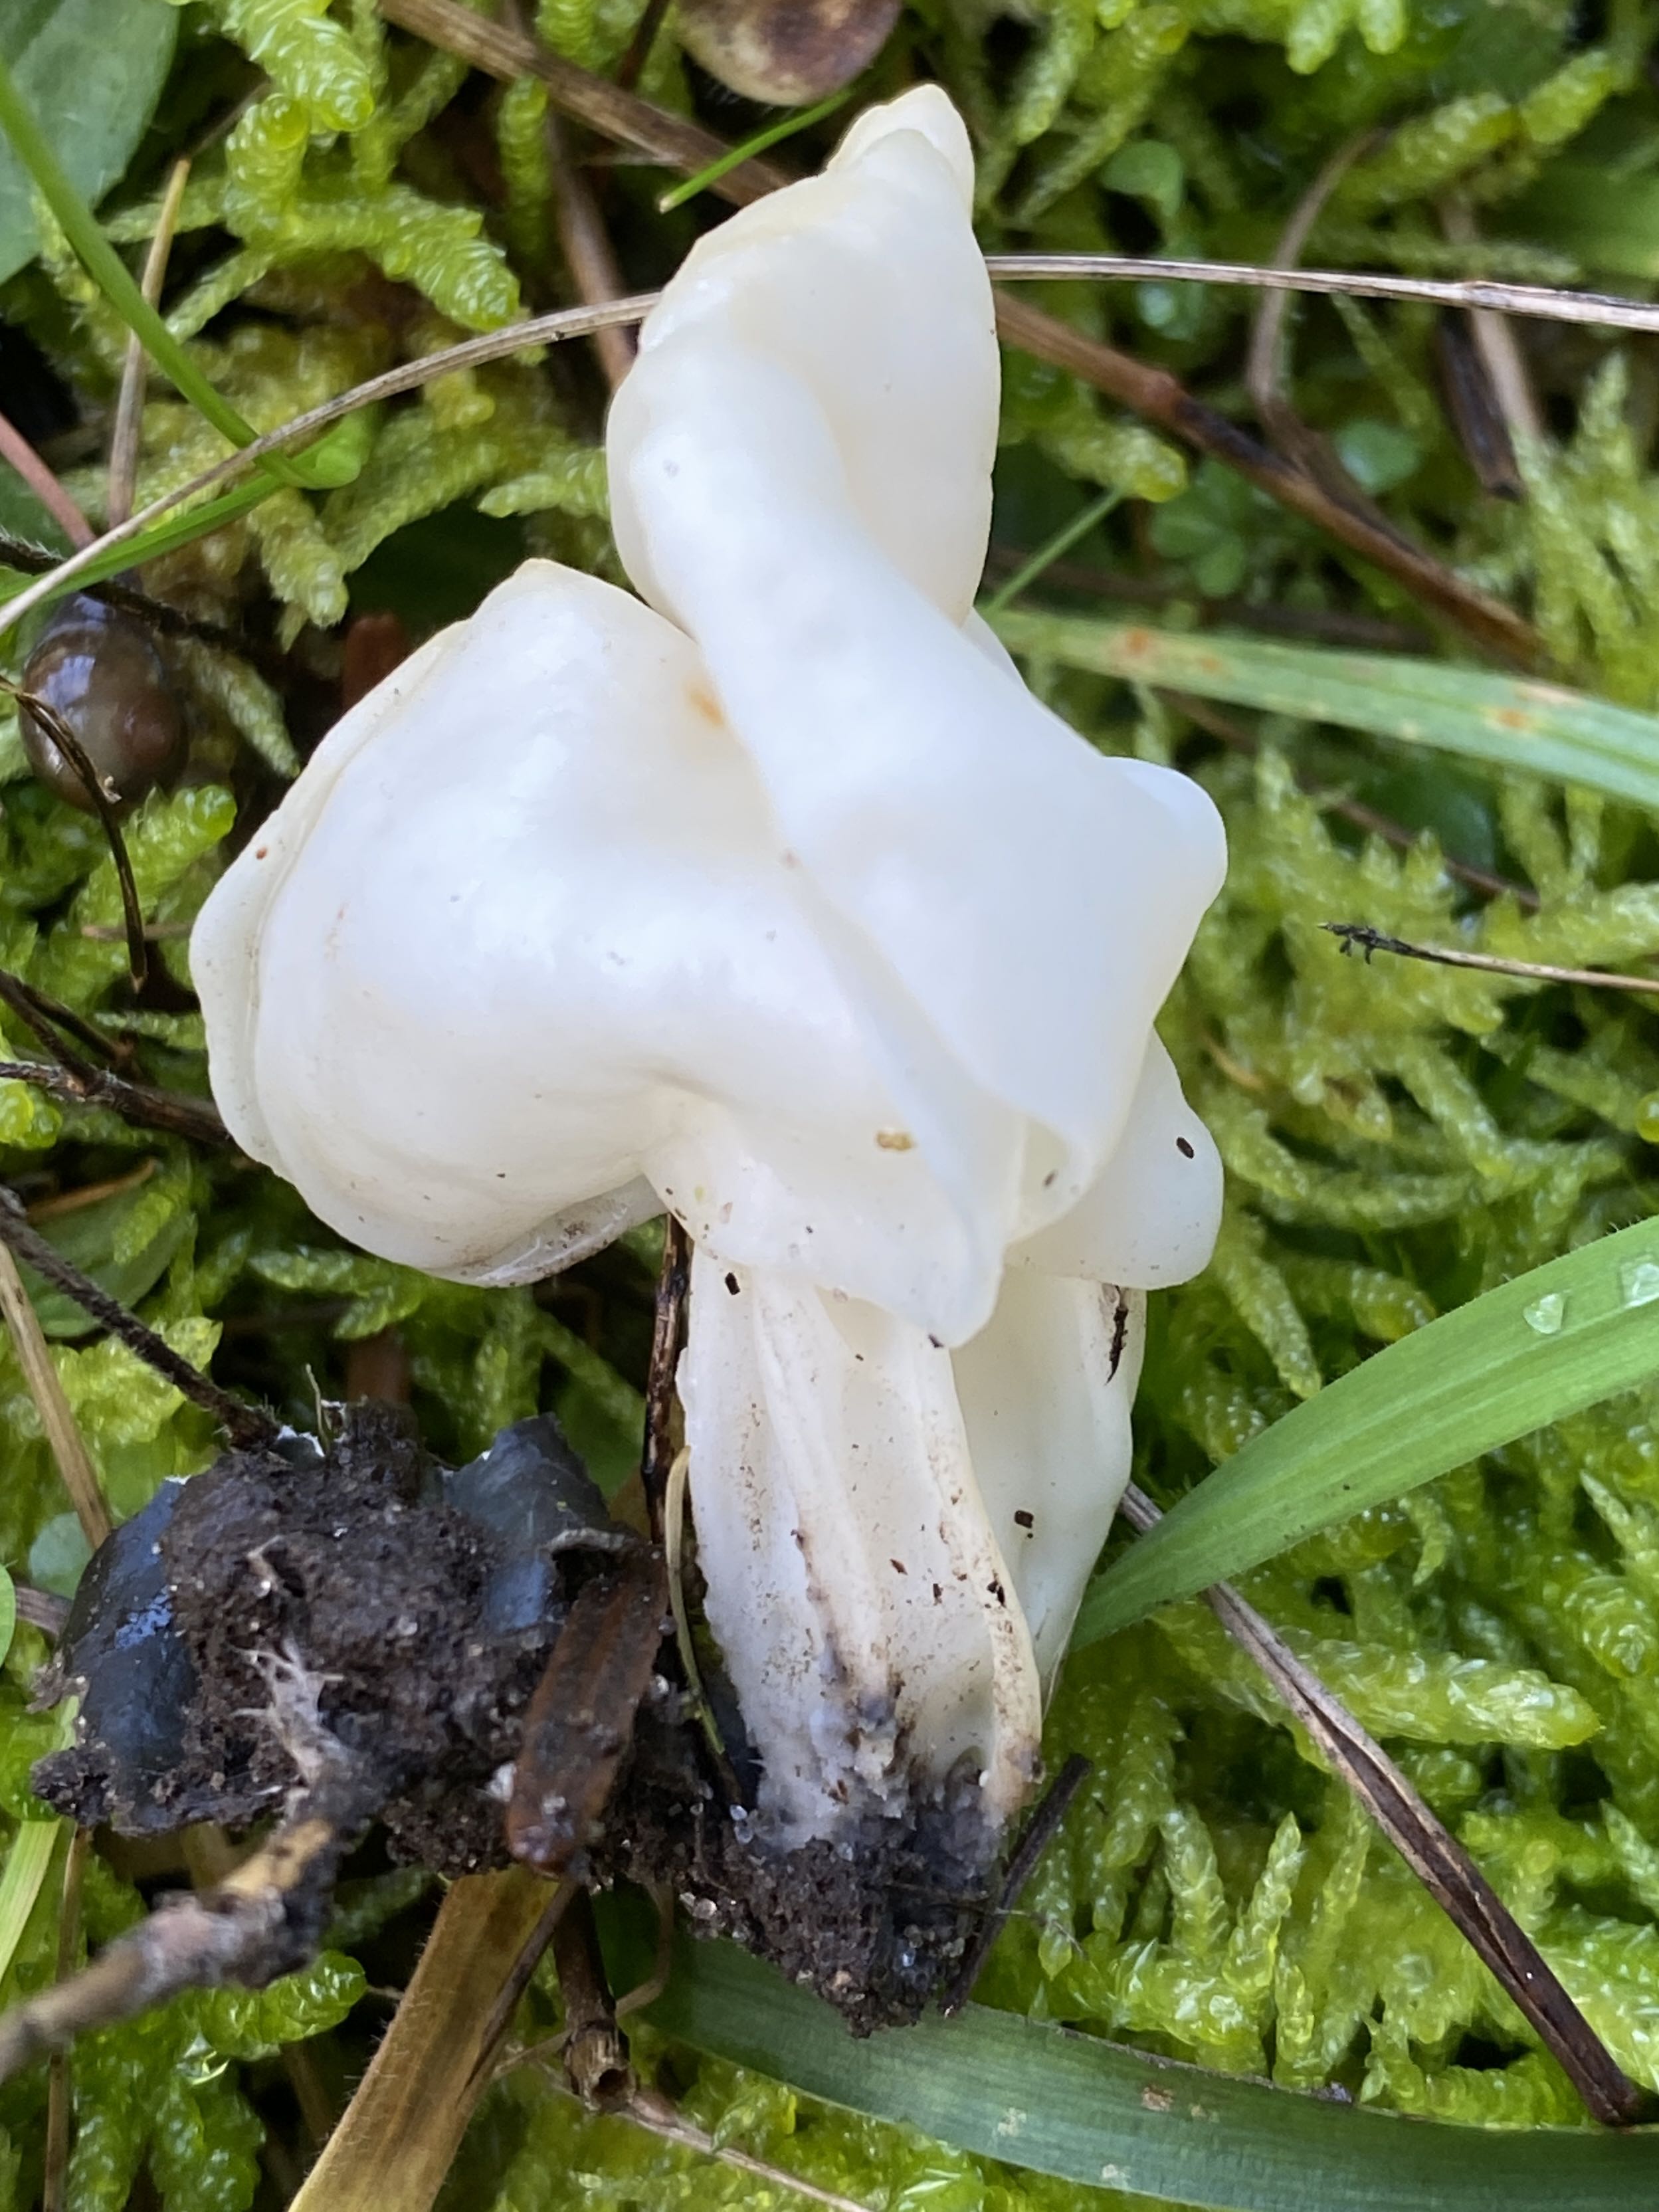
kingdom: Fungi
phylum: Ascomycota
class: Pezizomycetes
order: Pezizales
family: Helvellaceae
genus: Helvella
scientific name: Helvella crispa
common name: kruset foldhat
